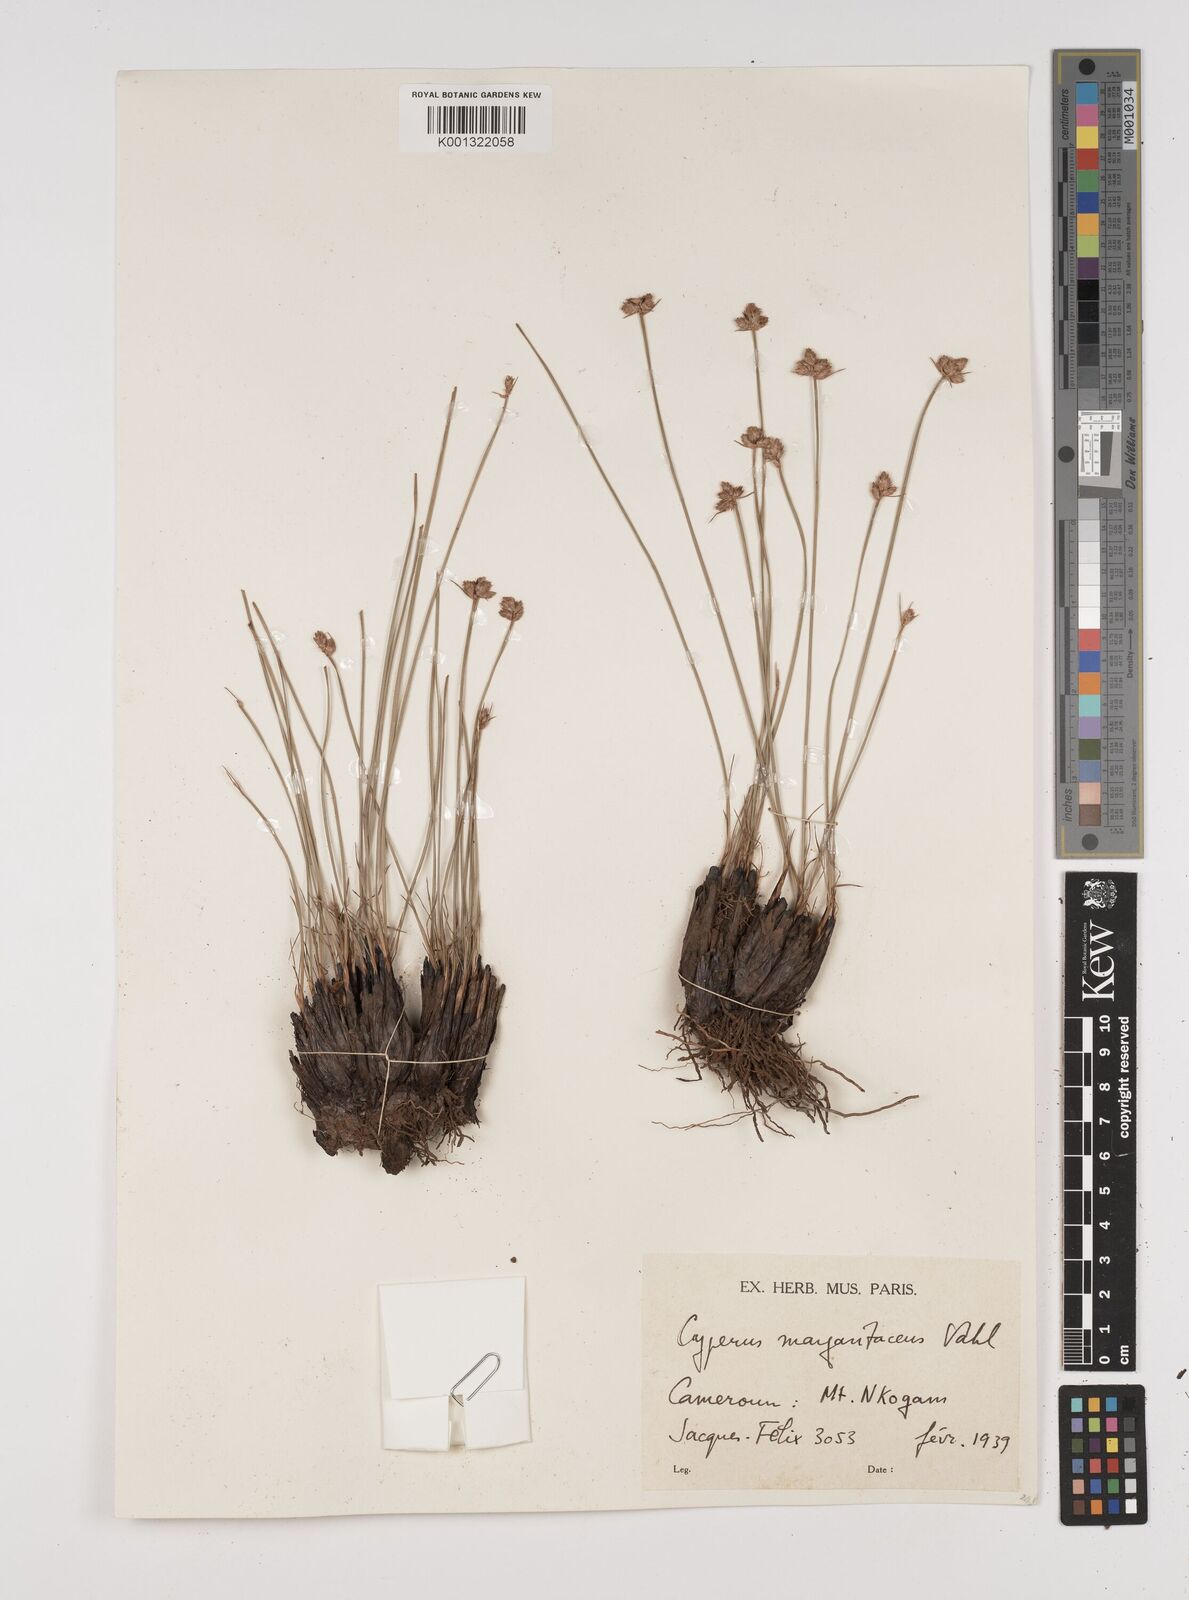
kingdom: Plantae
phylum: Tracheophyta
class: Liliopsida
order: Poales
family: Cyperaceae
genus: Cyperus
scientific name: Cyperus nduru
